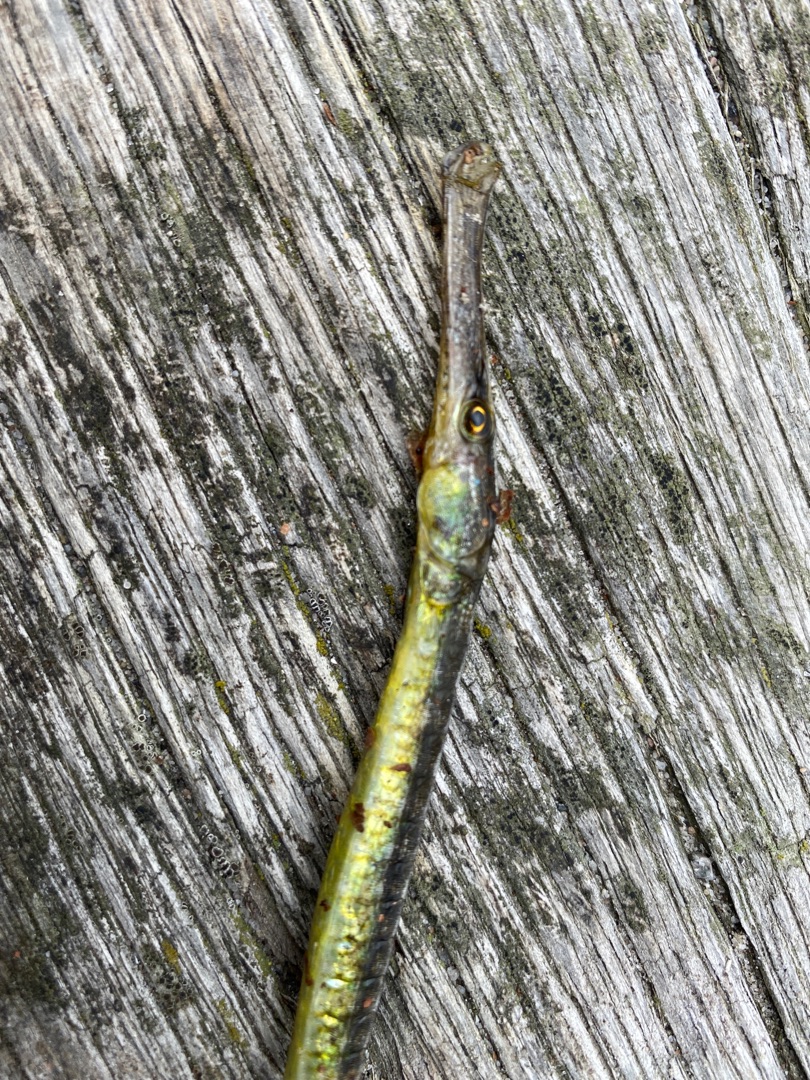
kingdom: Animalia
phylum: Chordata
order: Syngnathiformes
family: Syngnathidae
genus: Syngnathus
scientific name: Syngnathus typhle
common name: Almindelig tangnål
